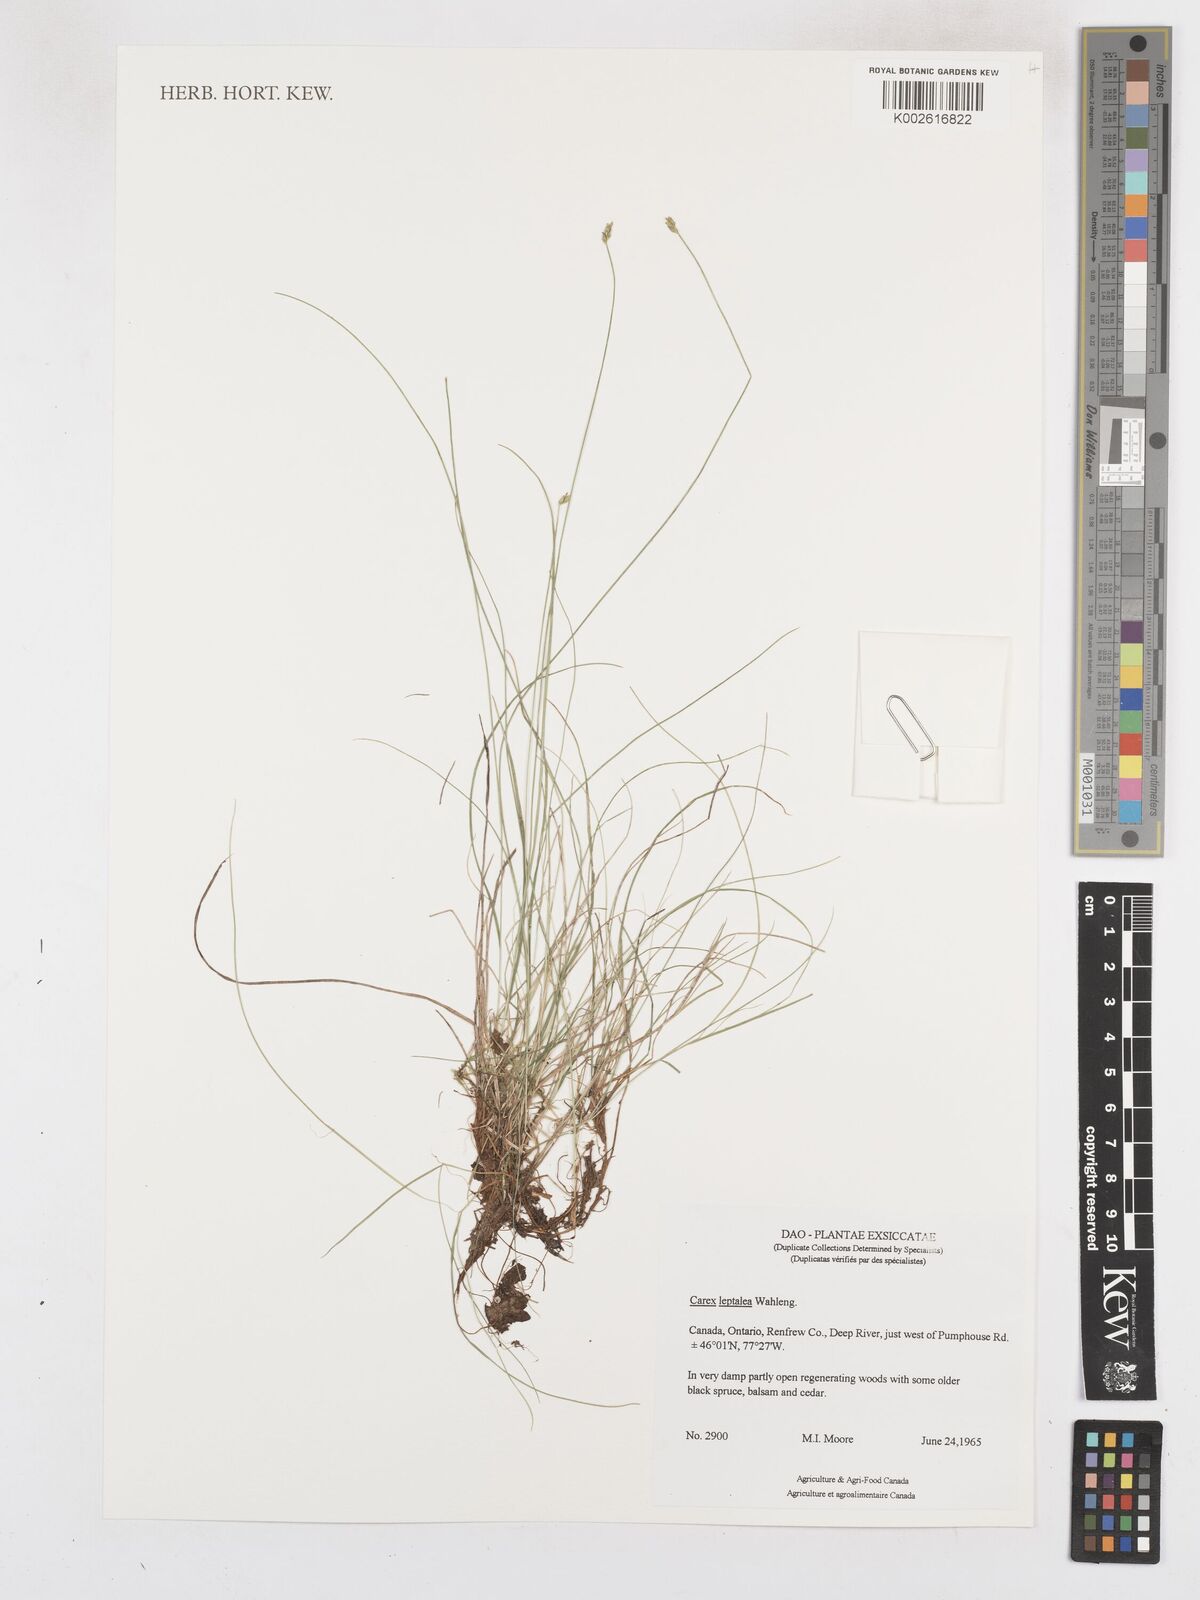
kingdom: Plantae
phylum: Tracheophyta
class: Liliopsida
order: Poales
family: Cyperaceae
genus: Carex
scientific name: Carex leptalea
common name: Bristly-stalked sedge
